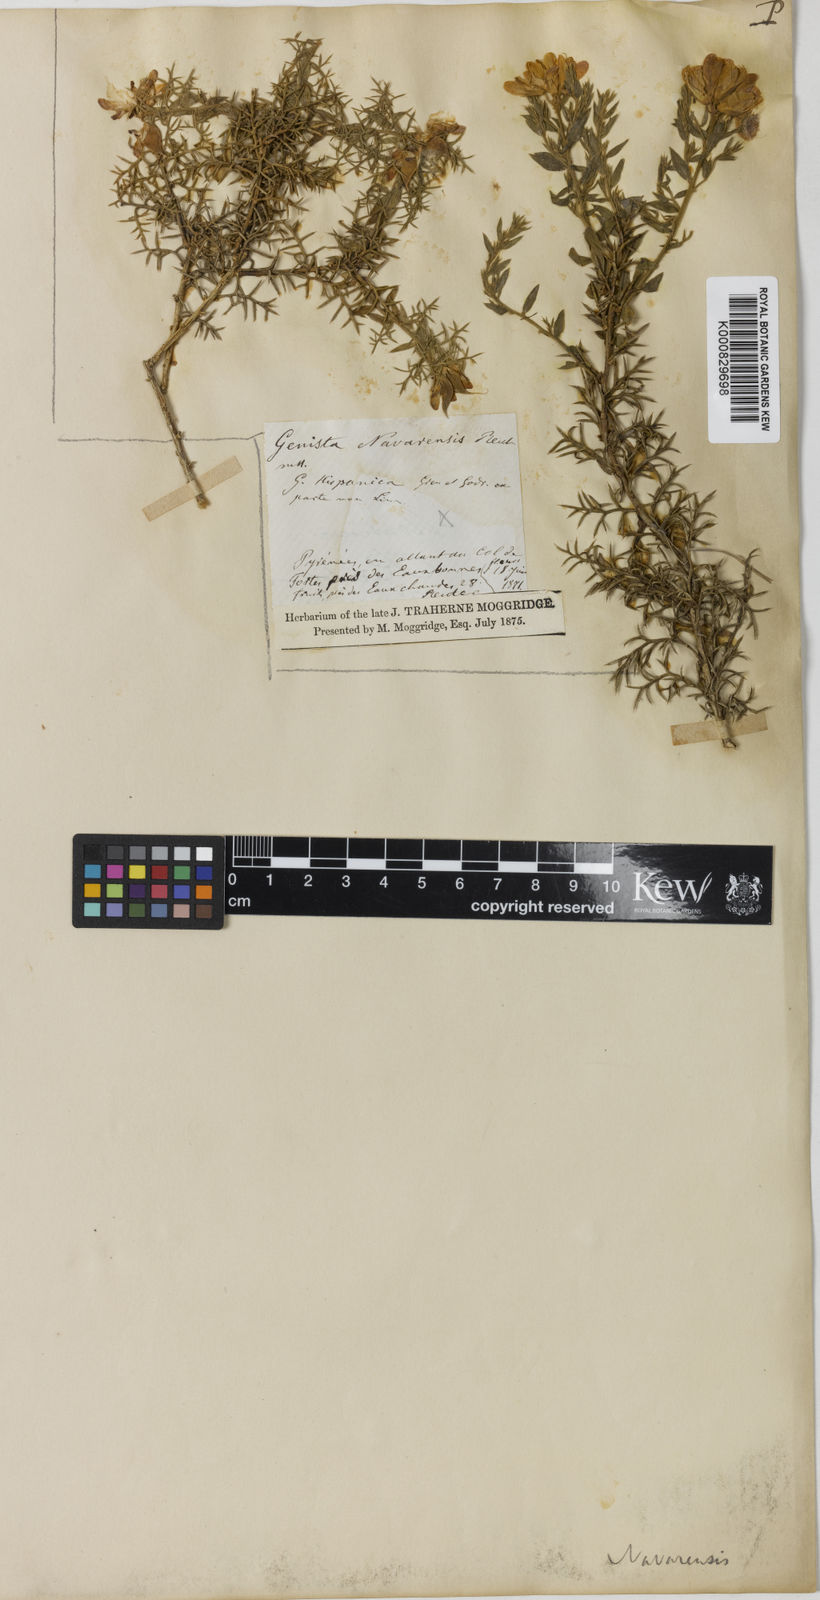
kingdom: Plantae
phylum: Tracheophyta
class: Magnoliopsida
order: Fabales
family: Fabaceae
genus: Spartium
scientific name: Spartium junceum
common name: Spanish broom
